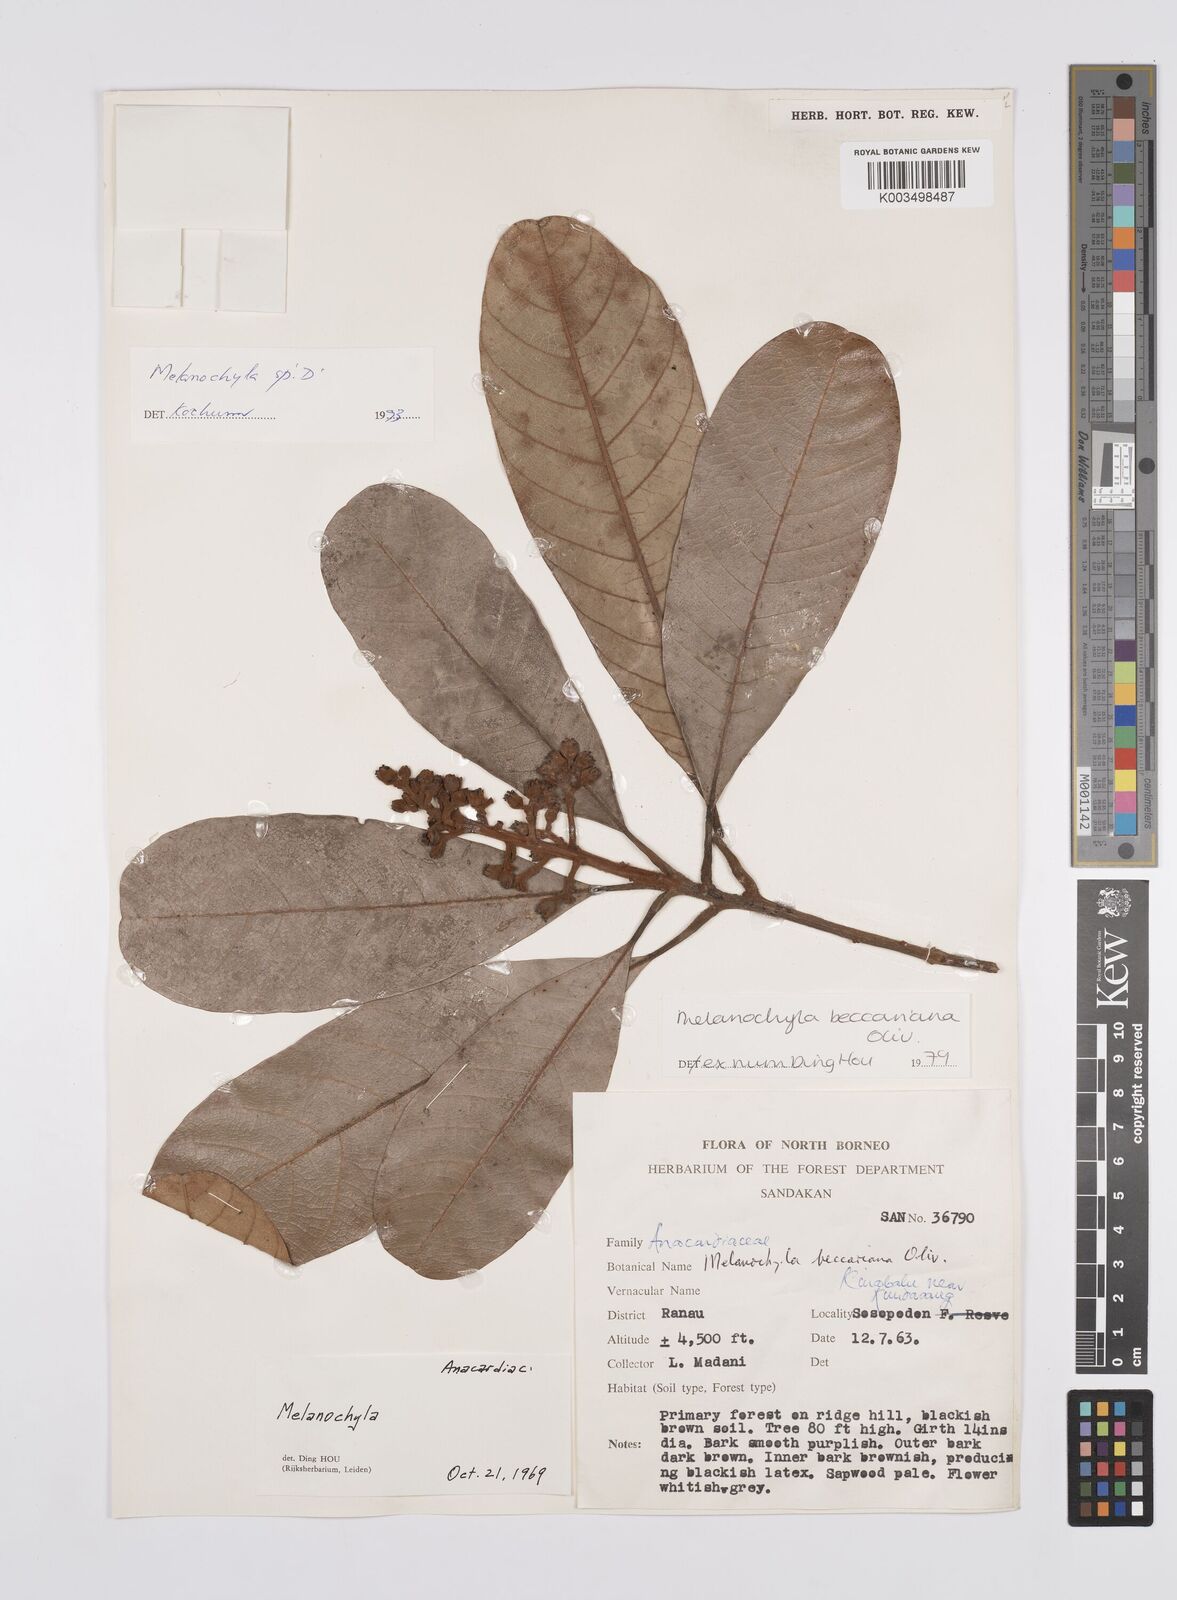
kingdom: Plantae
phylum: Tracheophyta
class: Magnoliopsida
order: Sapindales
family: Anacardiaceae
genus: Melanochyla
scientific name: Melanochyla beccariana
